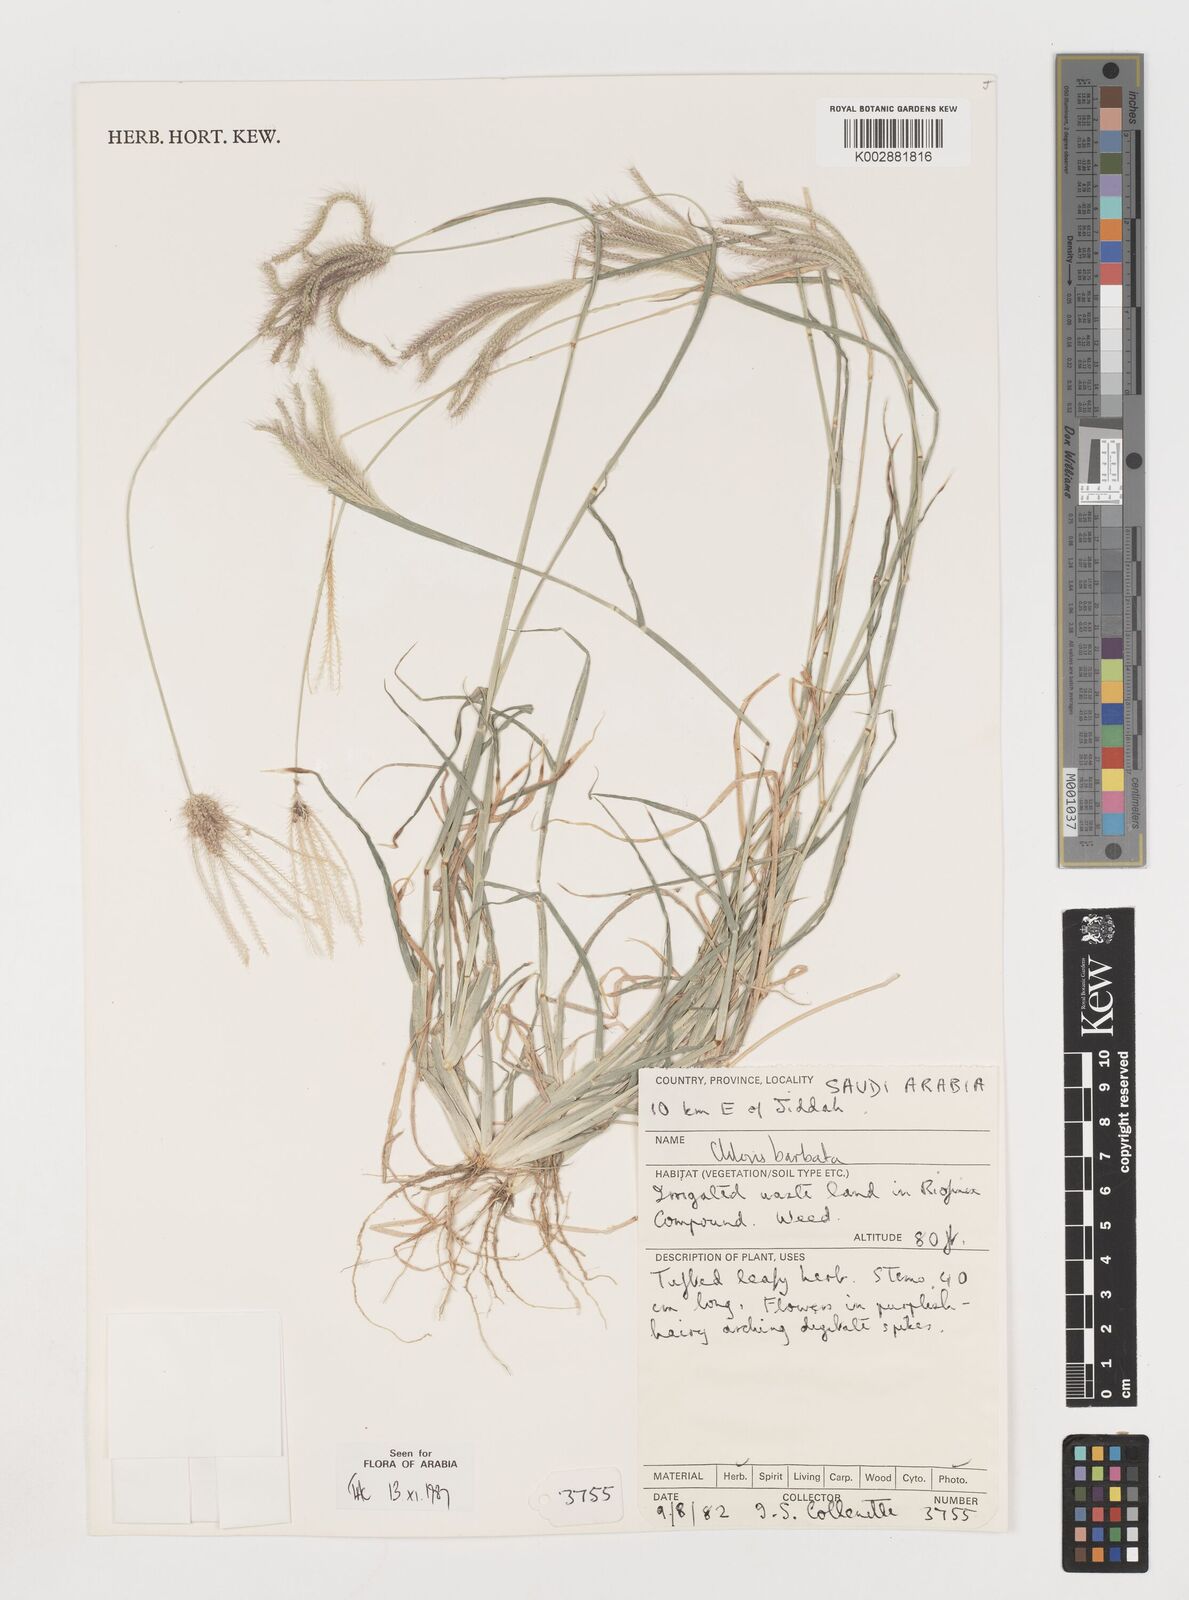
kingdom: Plantae
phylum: Tracheophyta
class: Liliopsida
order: Poales
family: Poaceae
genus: Chloris
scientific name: Chloris barbata
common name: Swollen fingergrass
